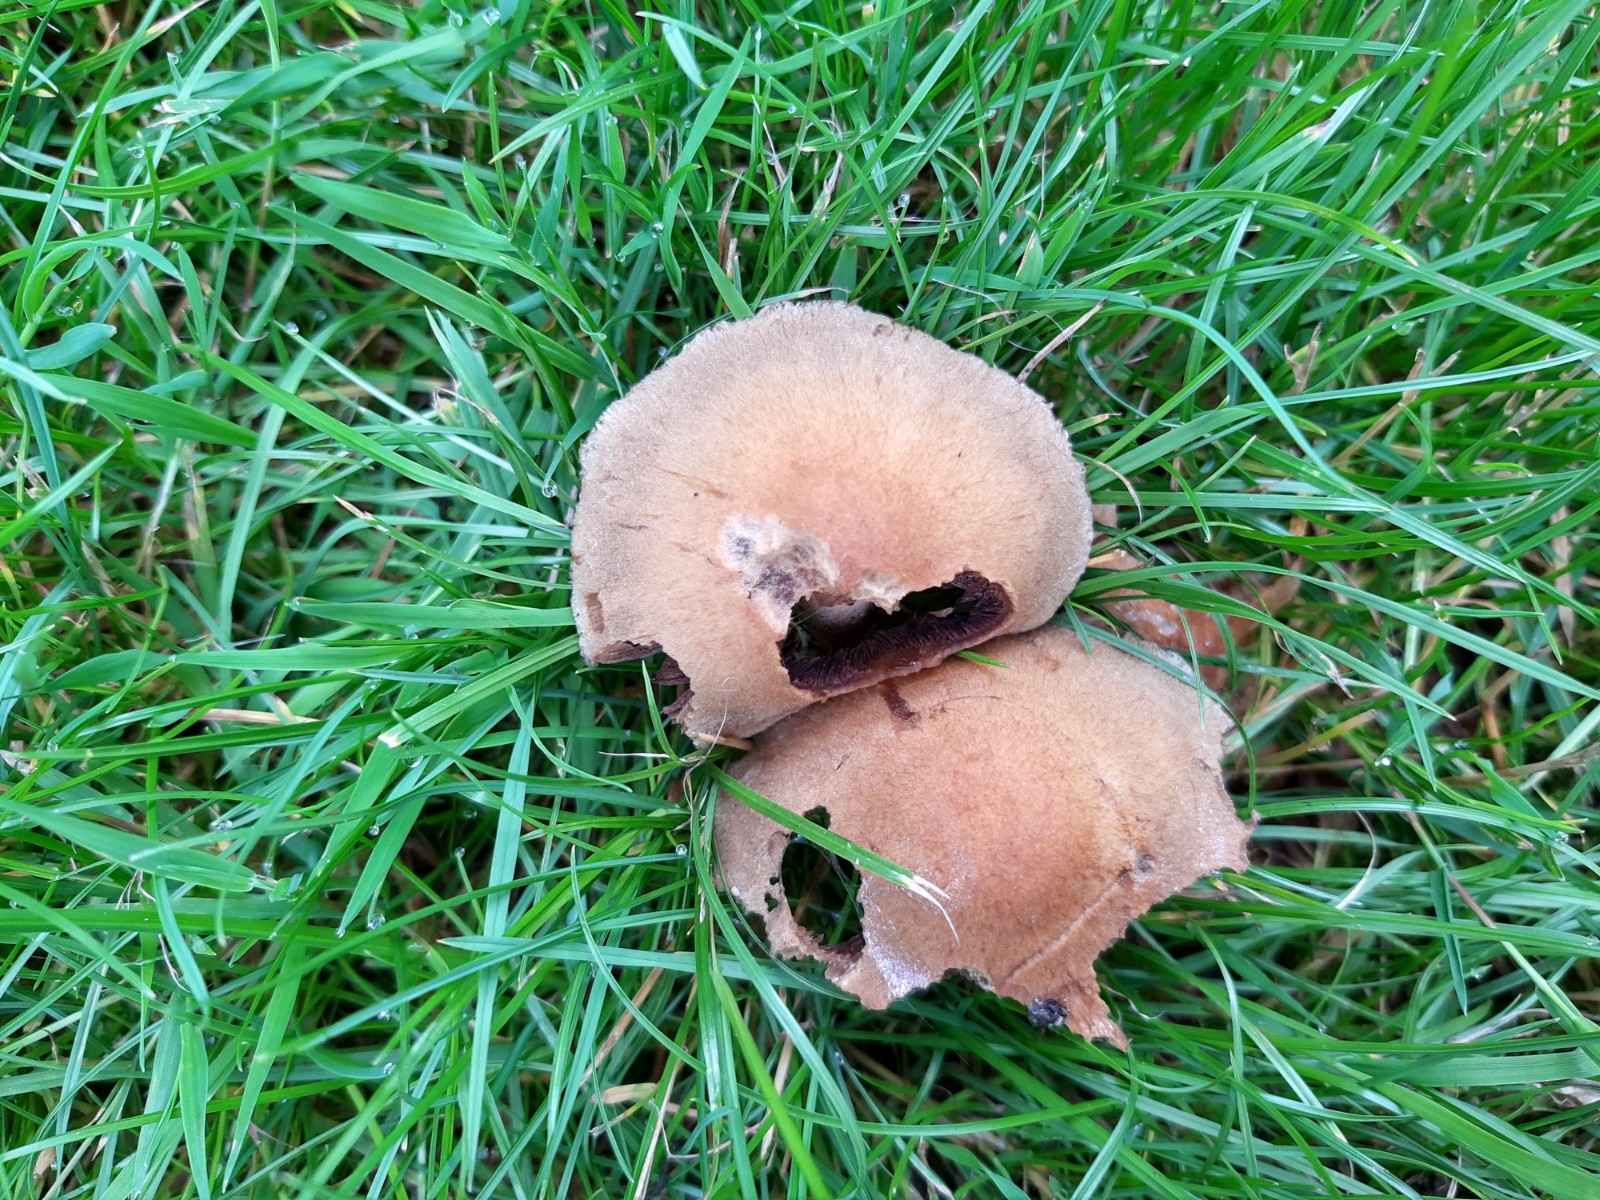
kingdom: Fungi
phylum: Basidiomycota
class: Agaricomycetes
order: Agaricales
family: Psathyrellaceae
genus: Lacrymaria
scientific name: Lacrymaria lacrymabunda
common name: grædende mørkhat
